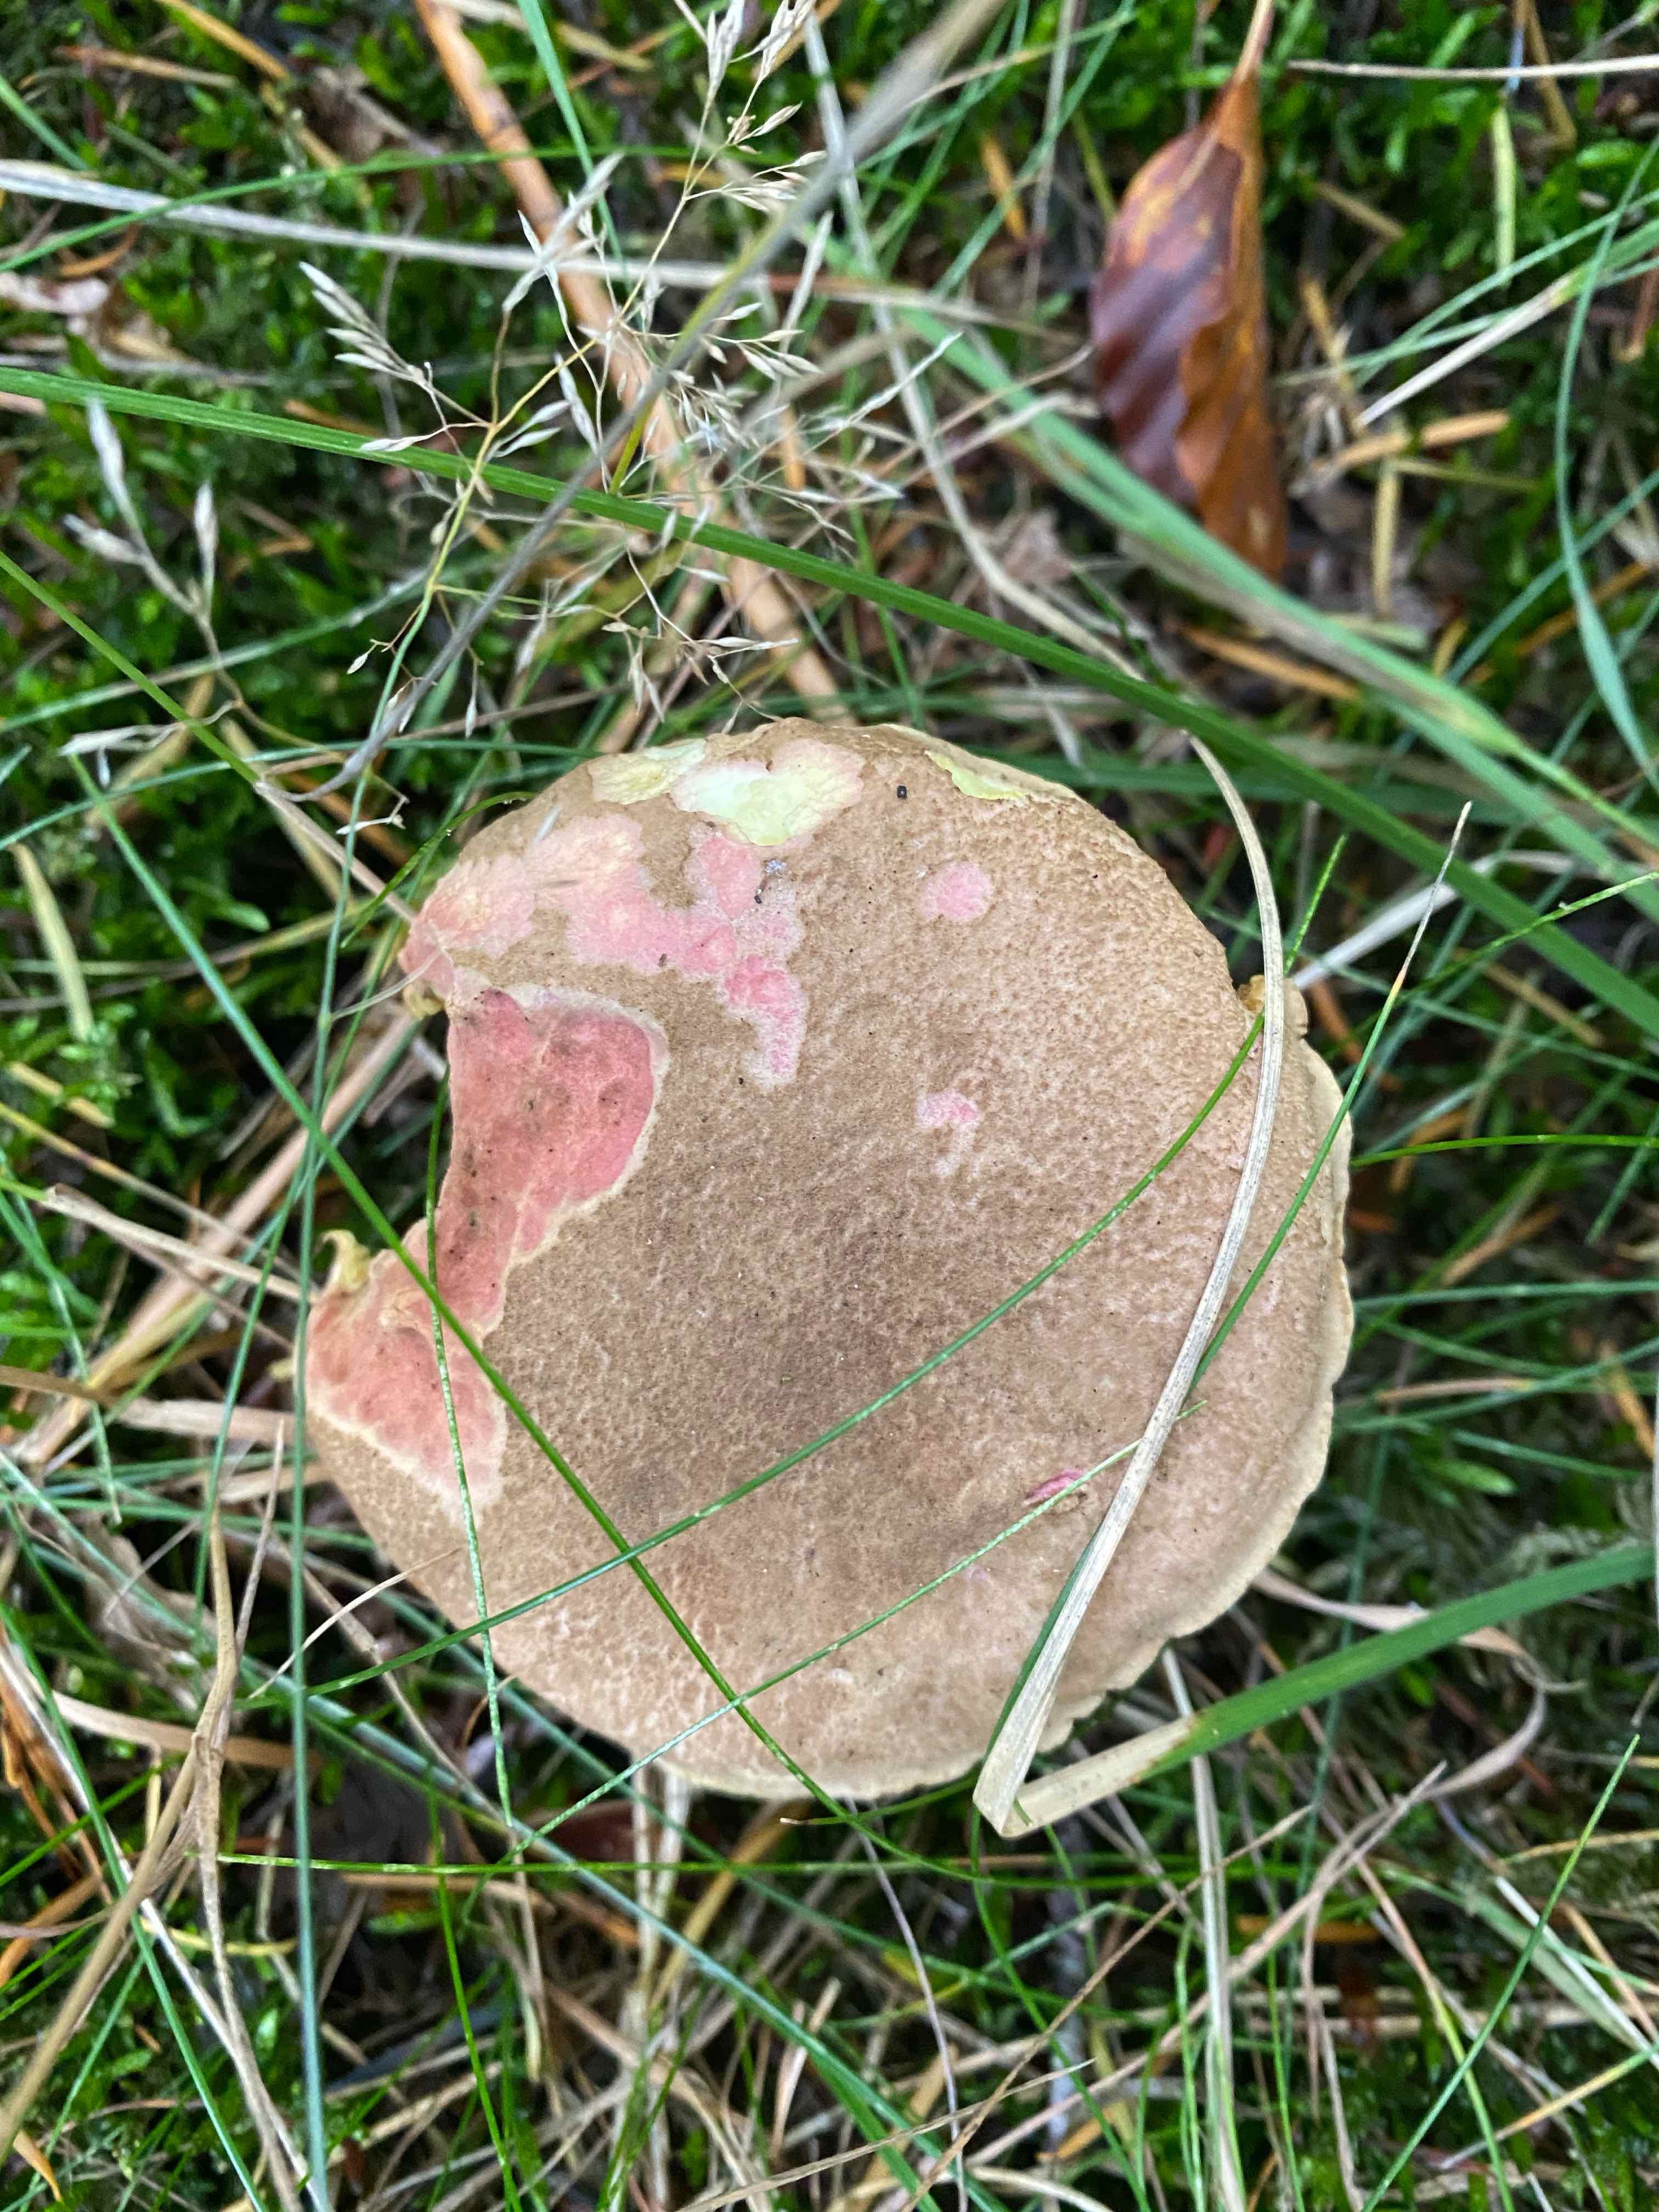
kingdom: Fungi
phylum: Basidiomycota
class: Agaricomycetes
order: Boletales
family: Boletaceae
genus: Xerocomellus
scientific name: Xerocomellus chrysenteron
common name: rødsprukken rørhat
